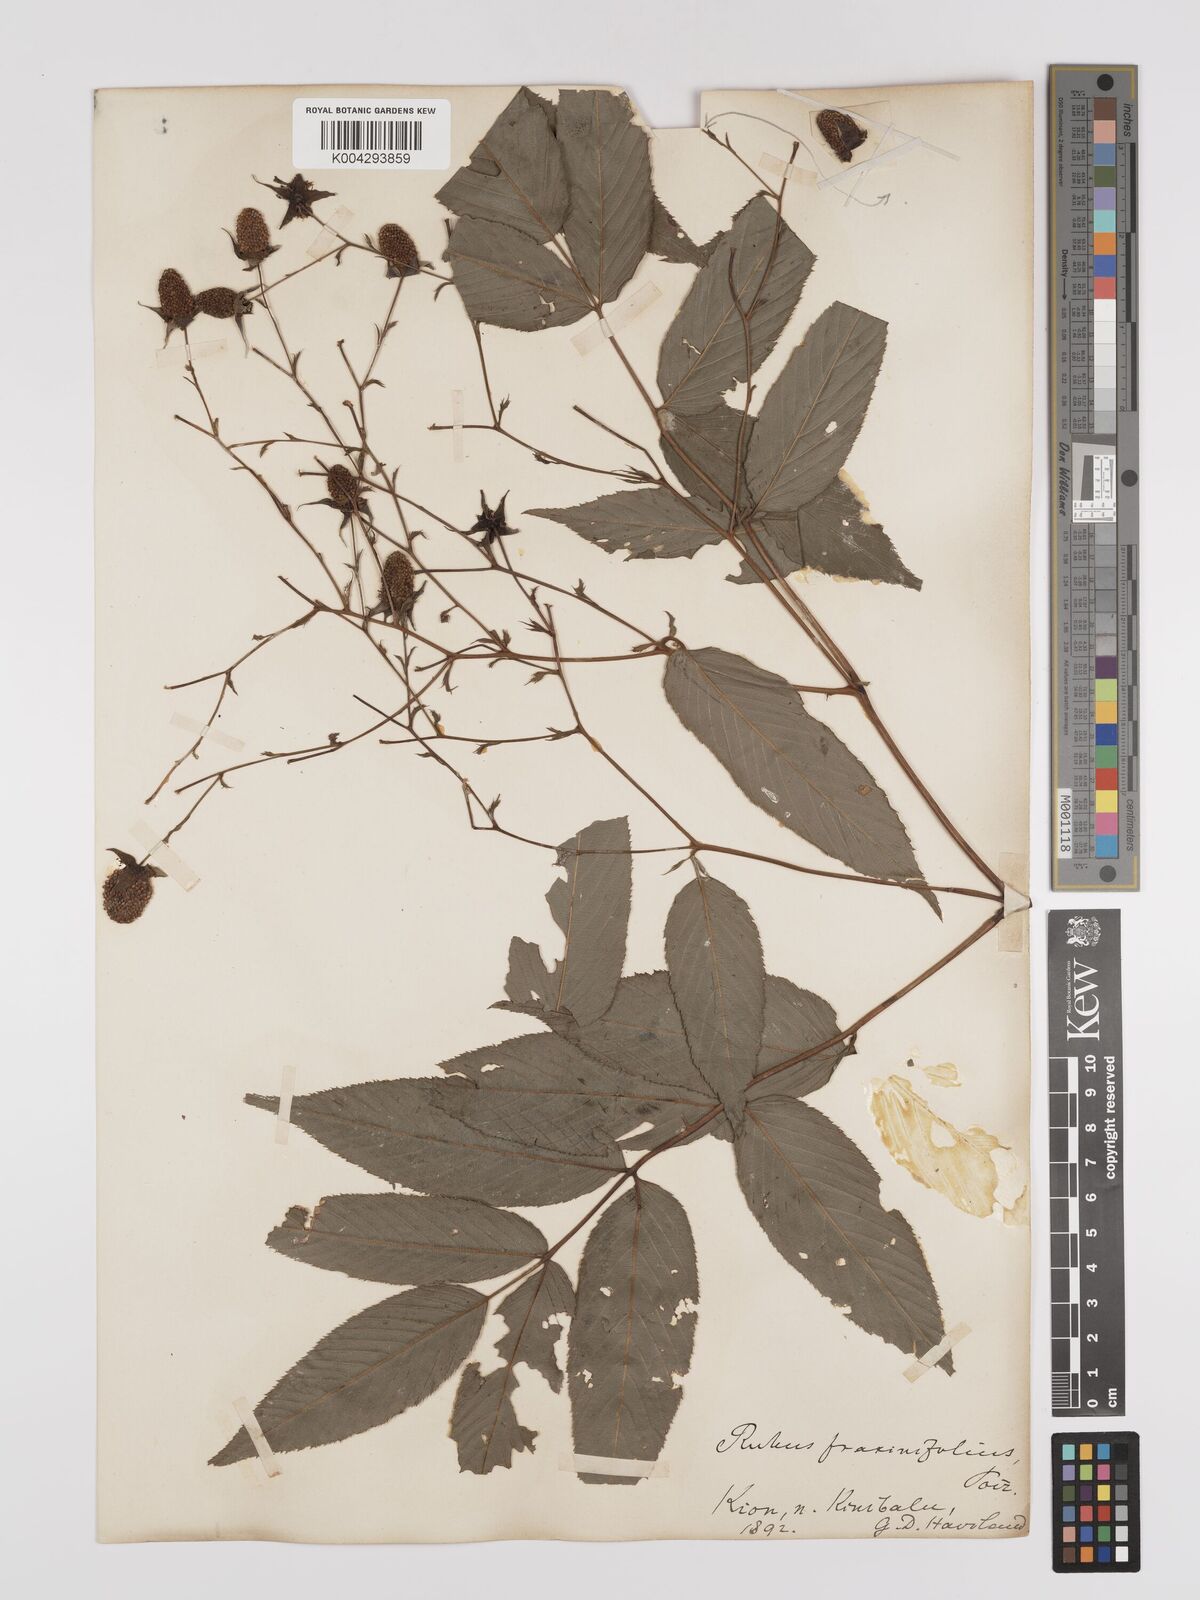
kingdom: Plantae
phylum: Tracheophyta
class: Magnoliopsida
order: Rosales
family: Rosaceae
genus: Rubus
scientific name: Rubus fraxinifolius
